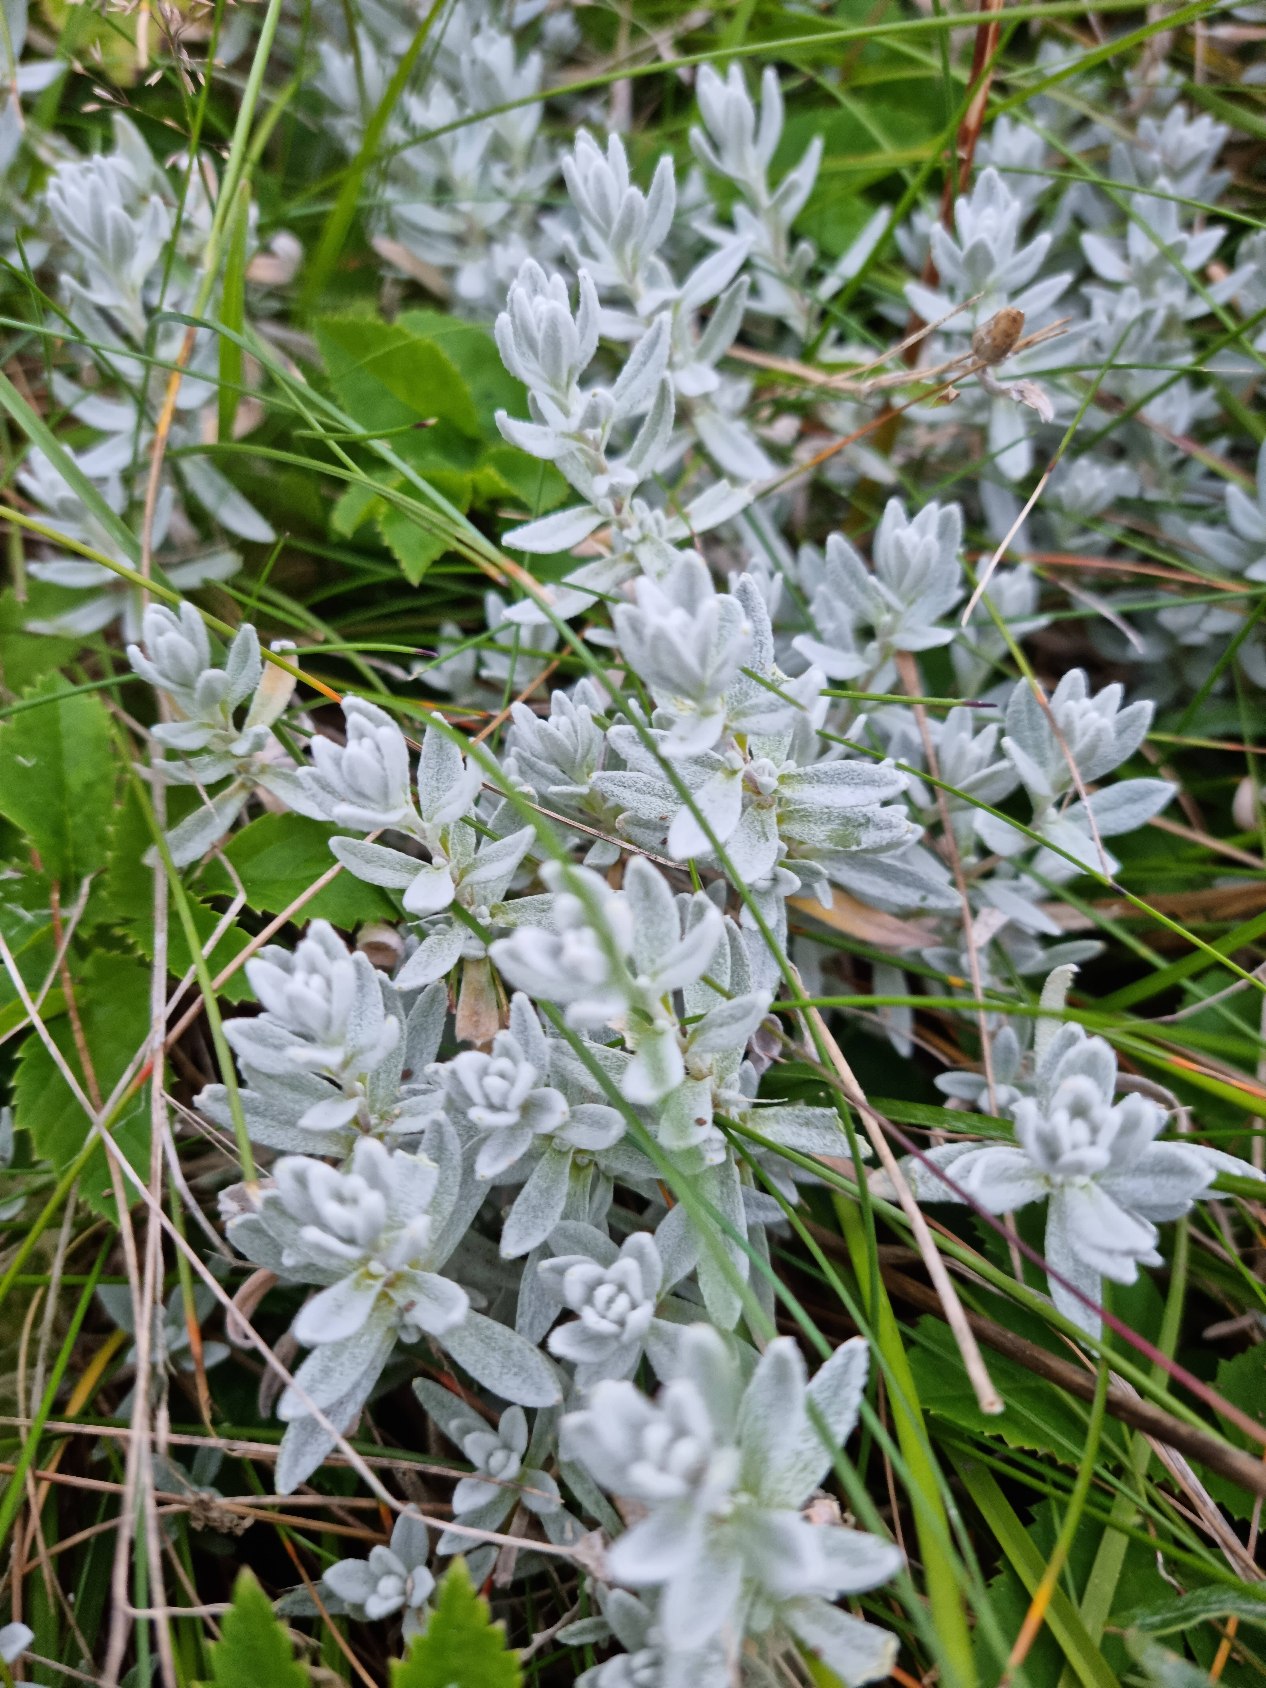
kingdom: Plantae
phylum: Tracheophyta
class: Magnoliopsida
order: Caryophyllales
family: Caryophyllaceae
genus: Cerastium
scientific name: Cerastium tomentosum
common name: Filtet hønsetarm
